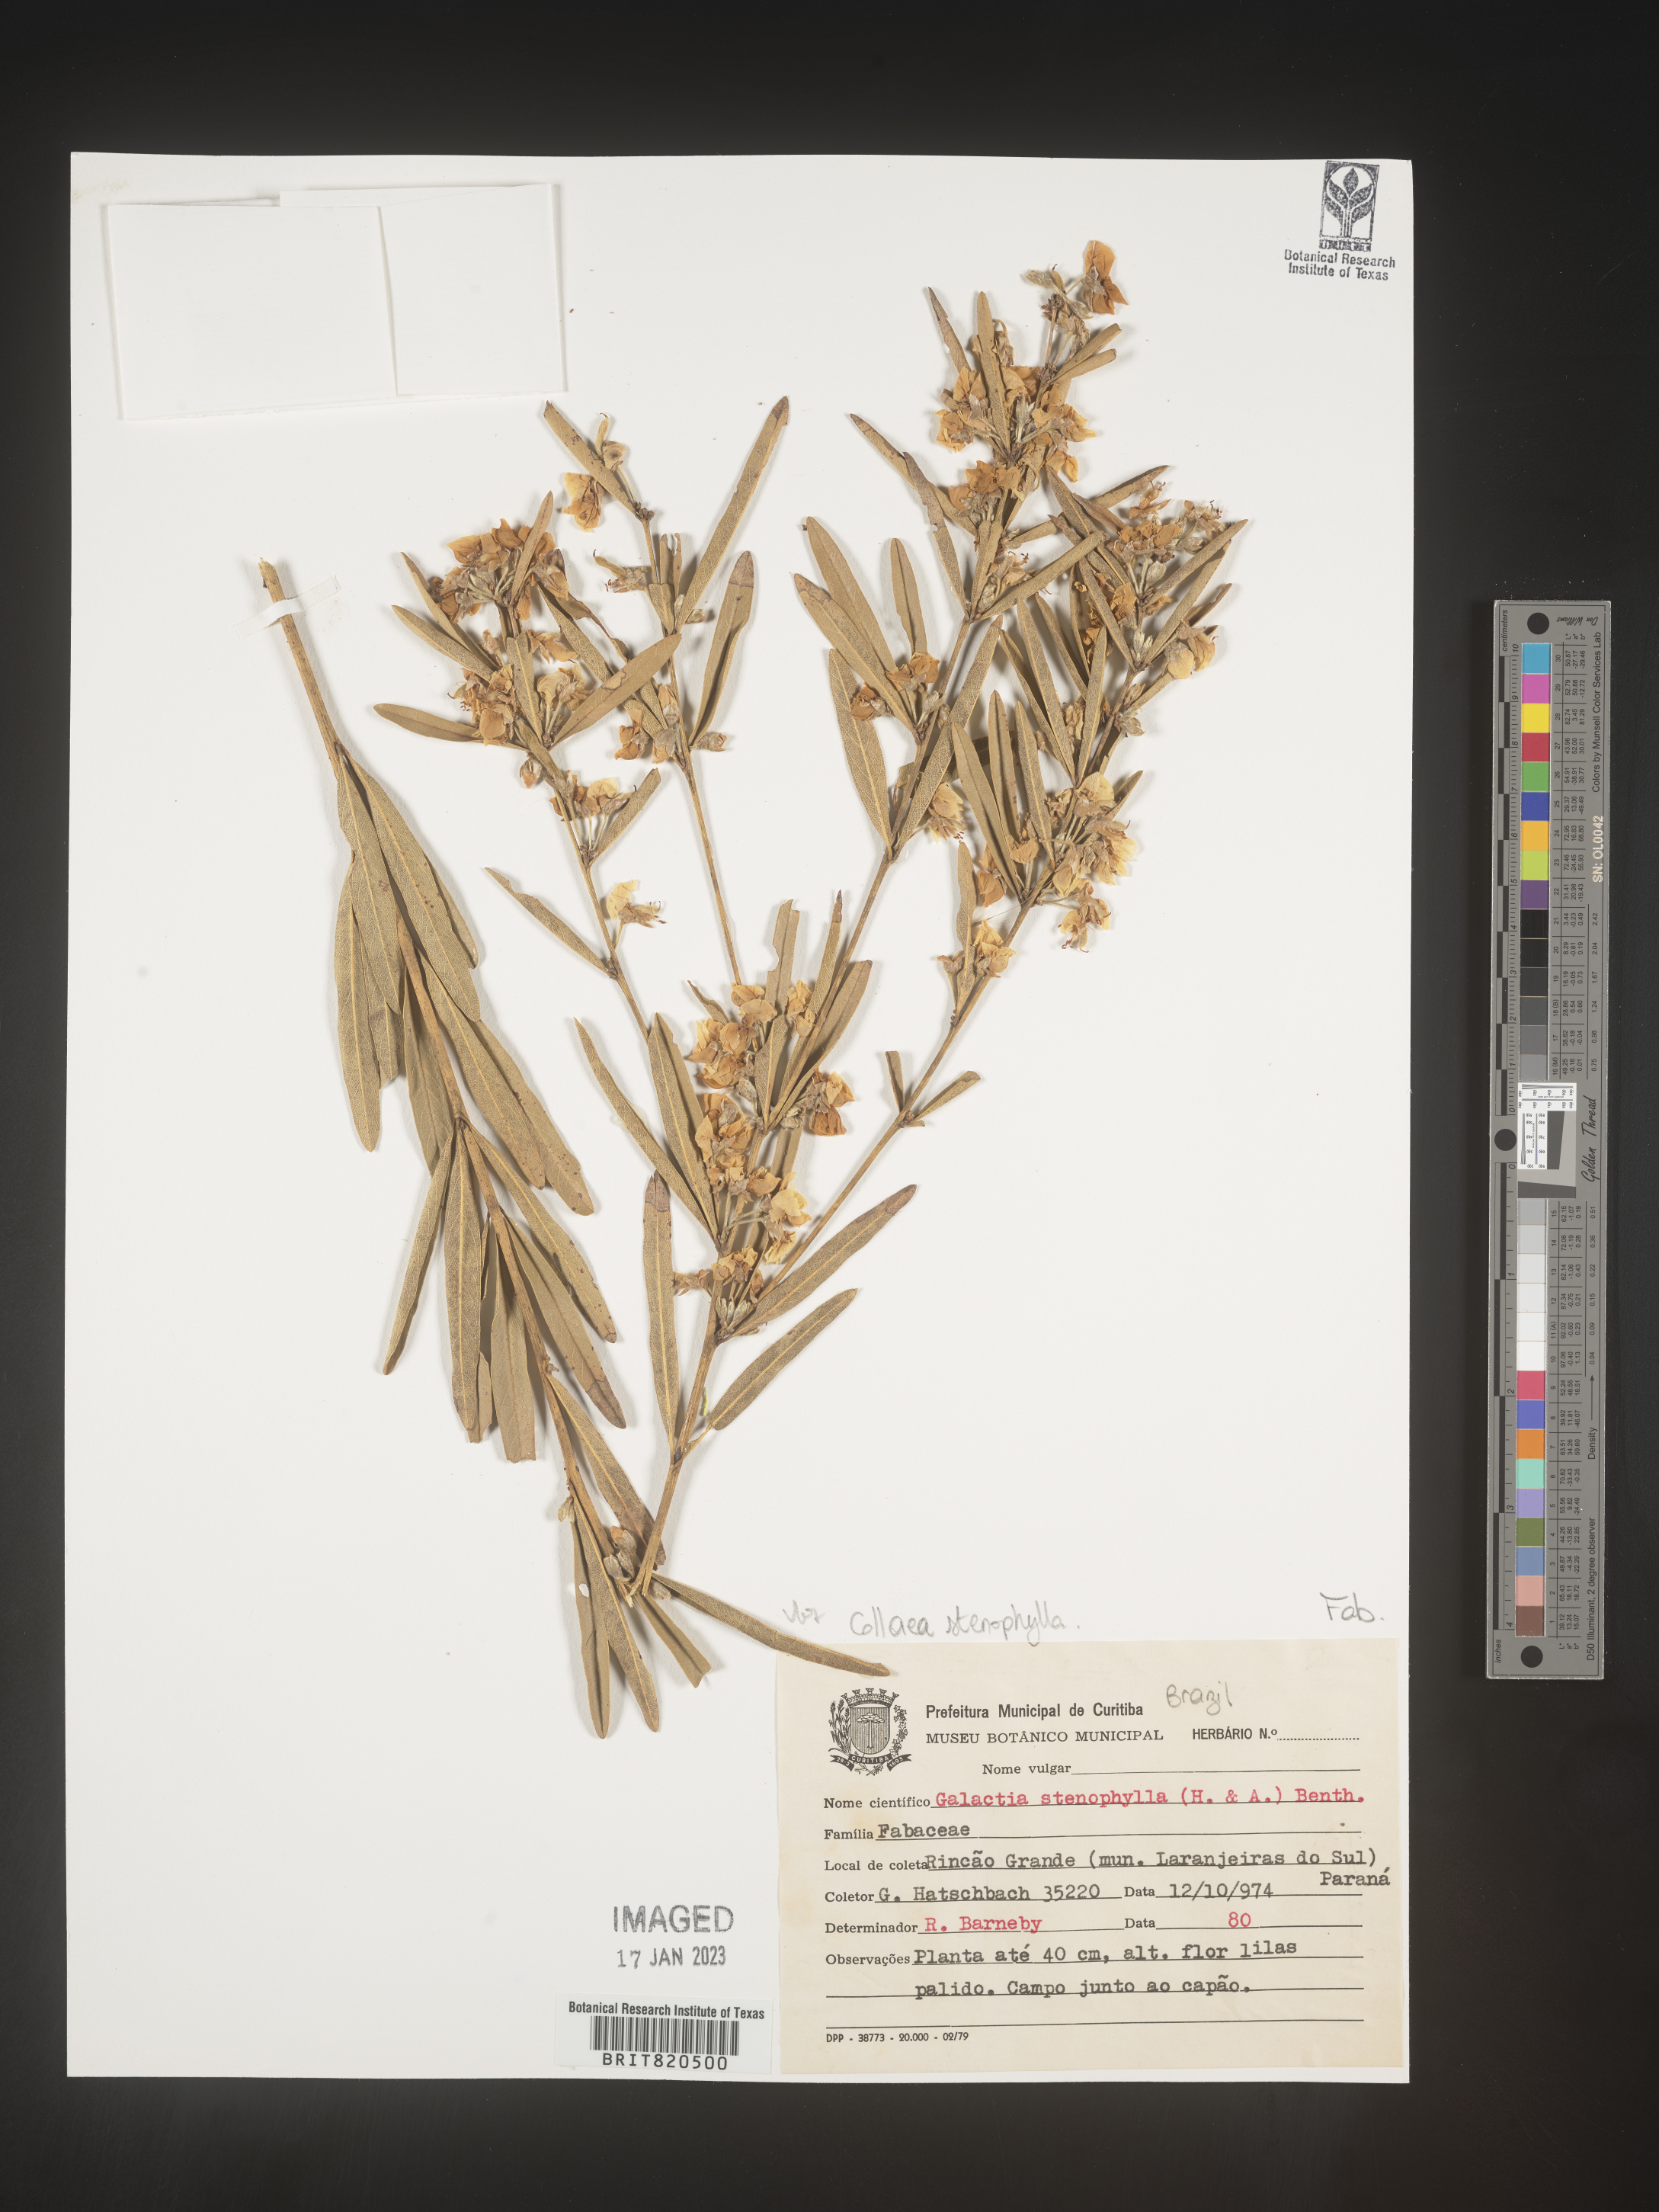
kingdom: Plantae
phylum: Tracheophyta
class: Magnoliopsida
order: Fabales
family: Fabaceae
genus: Galactia
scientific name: Galactia
